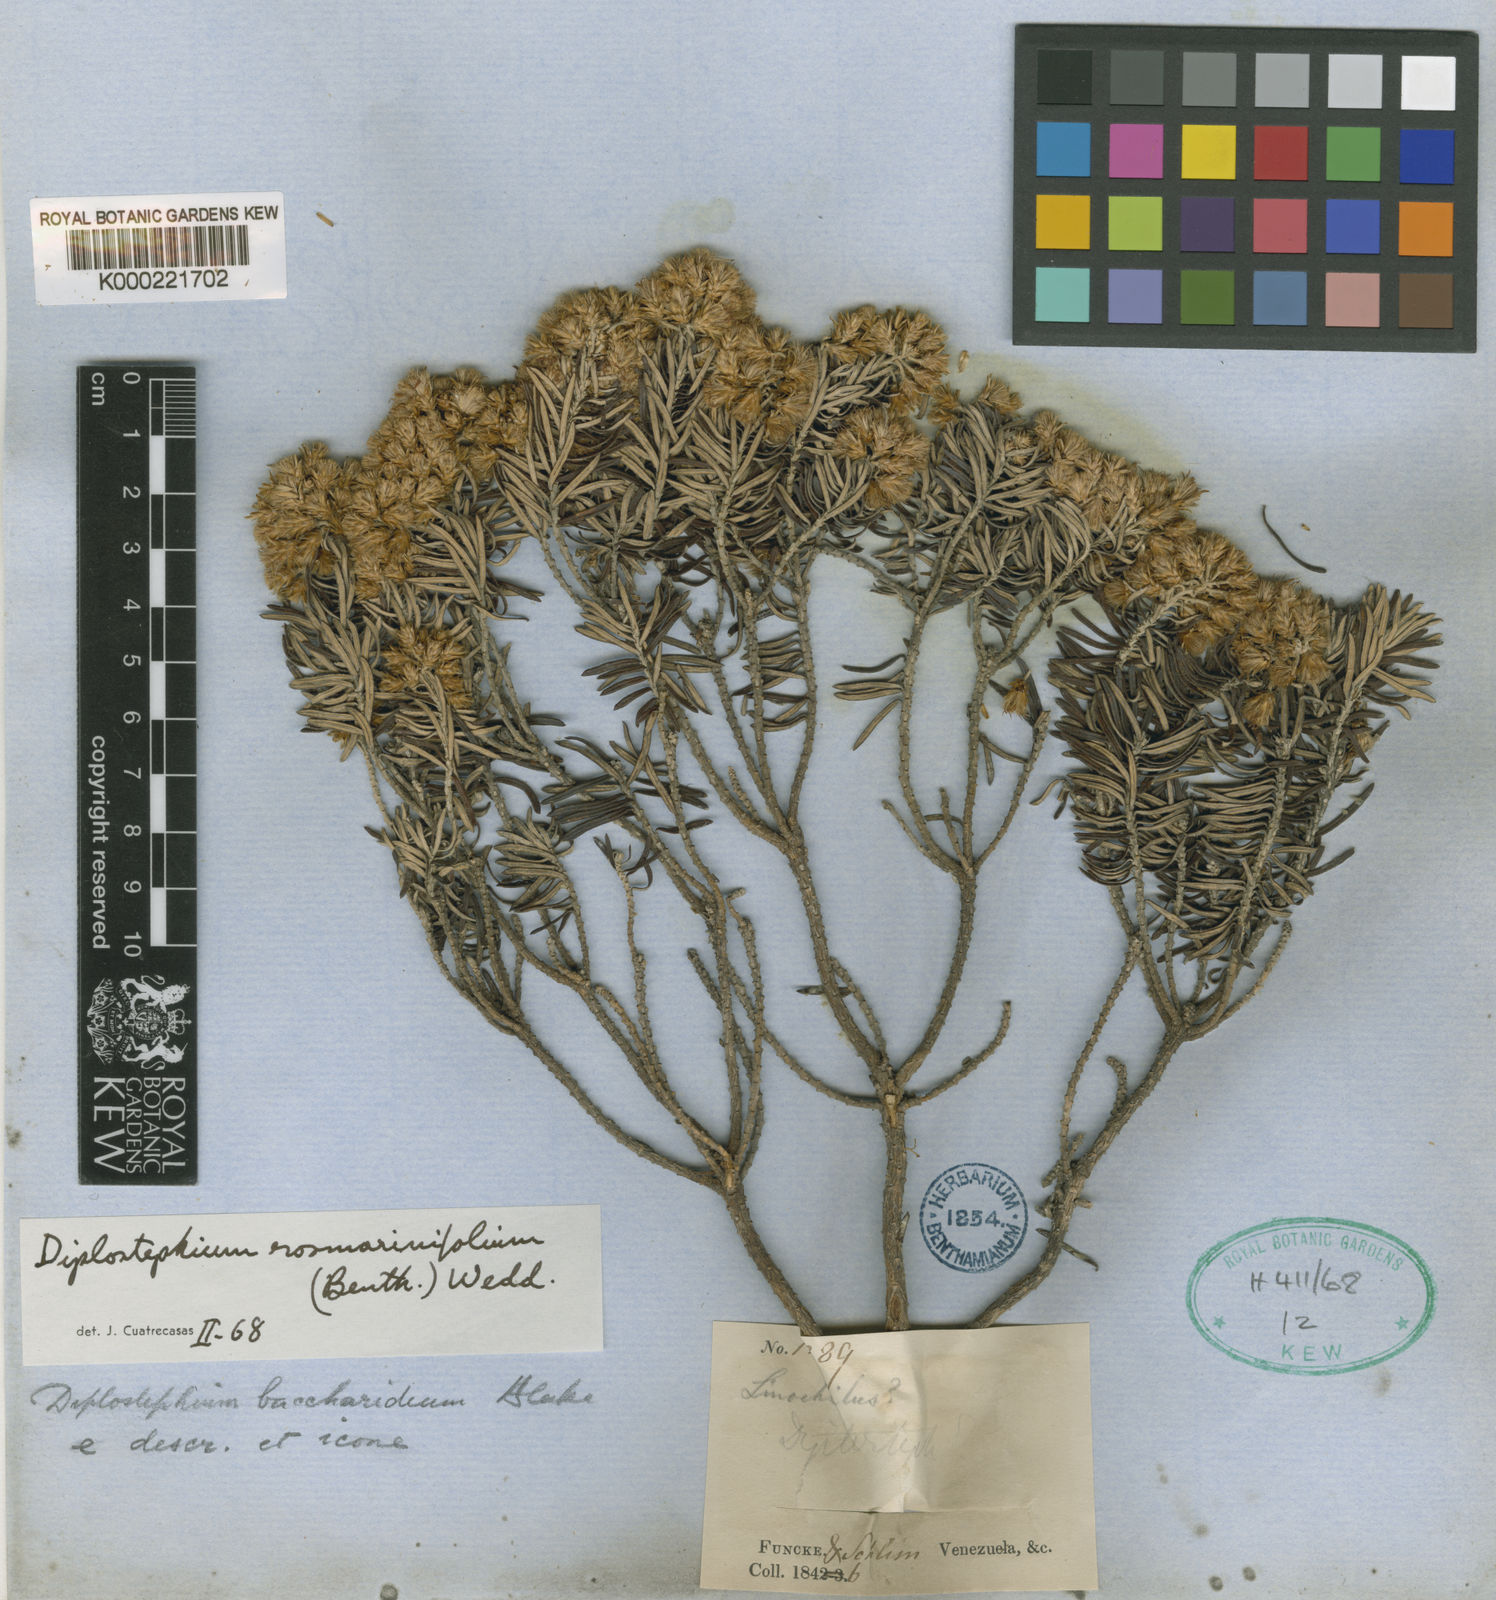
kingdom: Plantae
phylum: Tracheophyta
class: Magnoliopsida
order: Asterales
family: Asteraceae
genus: Linochilus
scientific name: Linochilus rosmarinifolius
